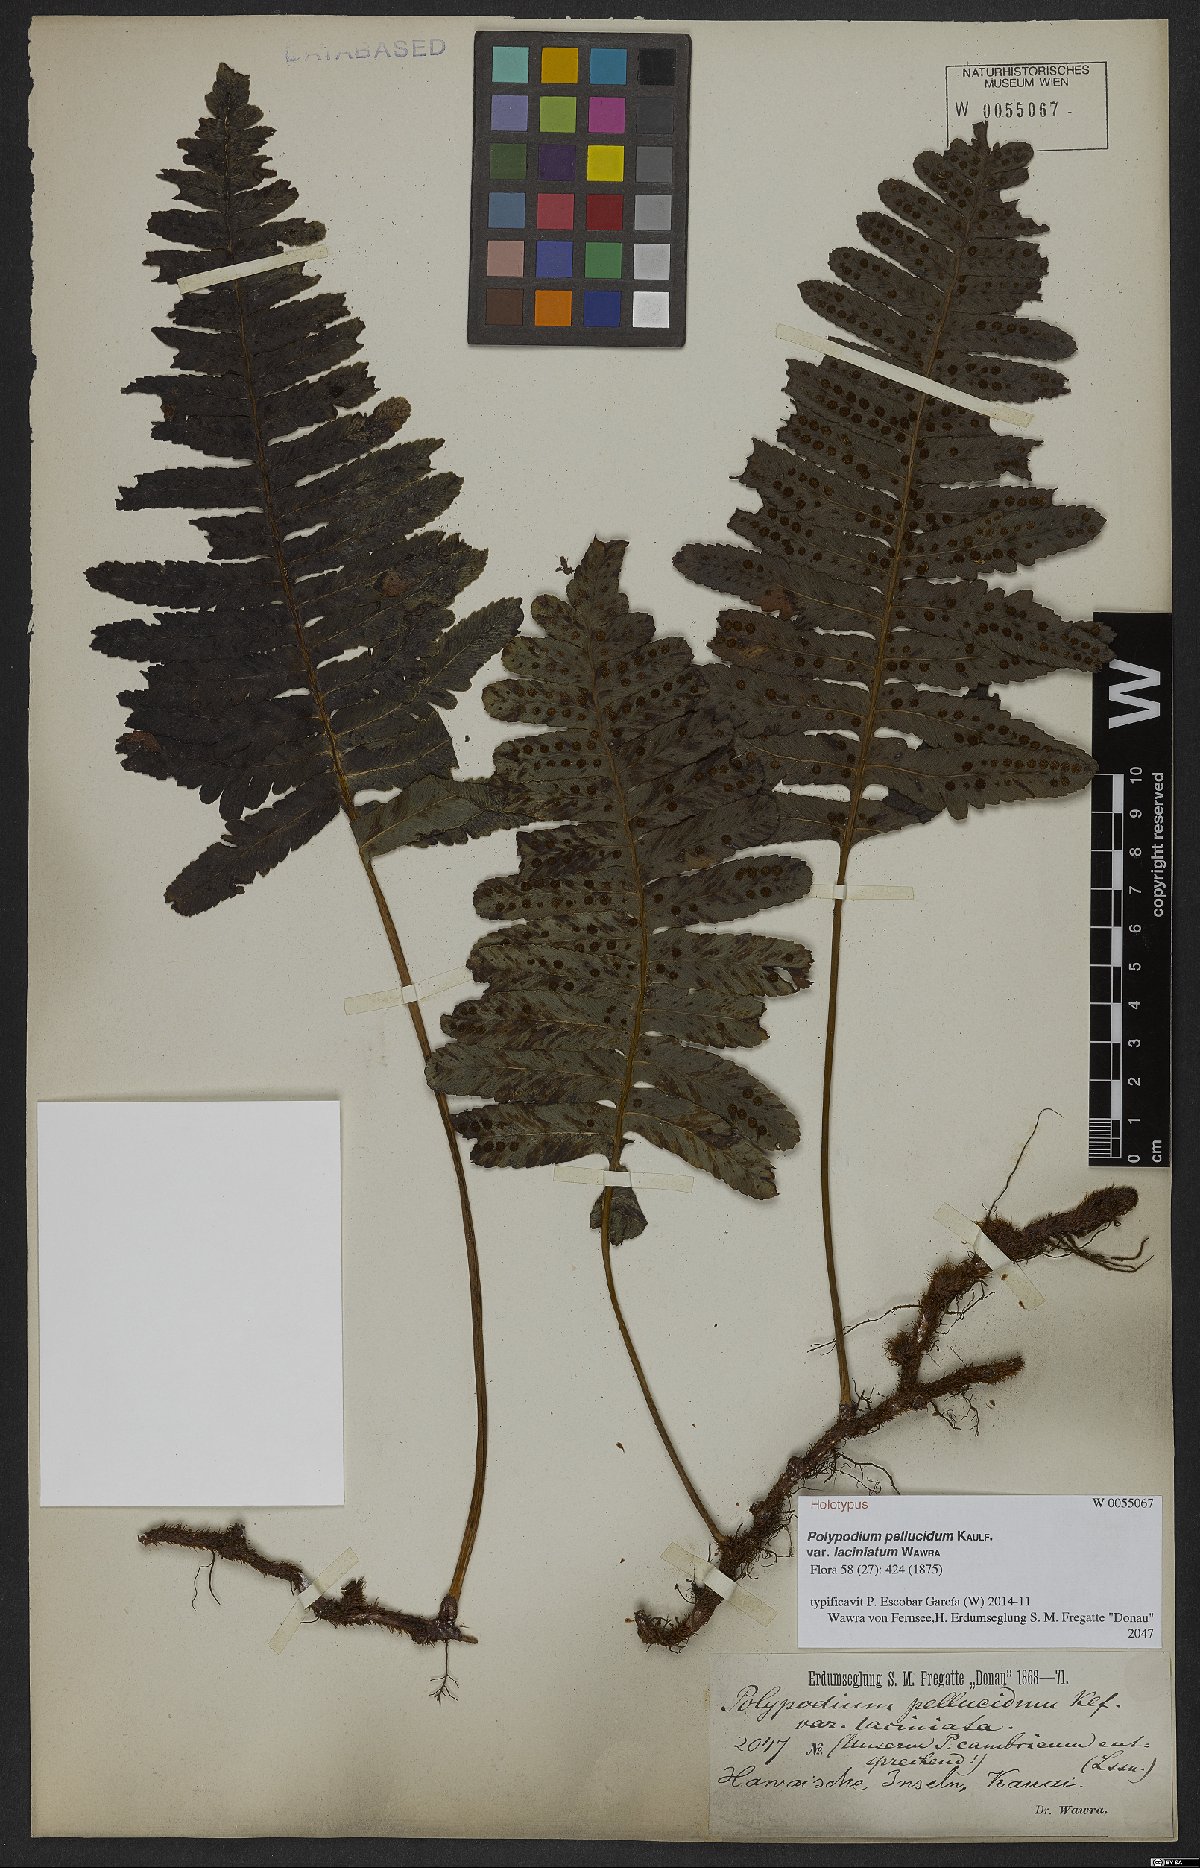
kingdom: Plantae
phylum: Tracheophyta
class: Polypodiopsida
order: Polypodiales
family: Polypodiaceae
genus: Polypodium
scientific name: Polypodium pellucidum
